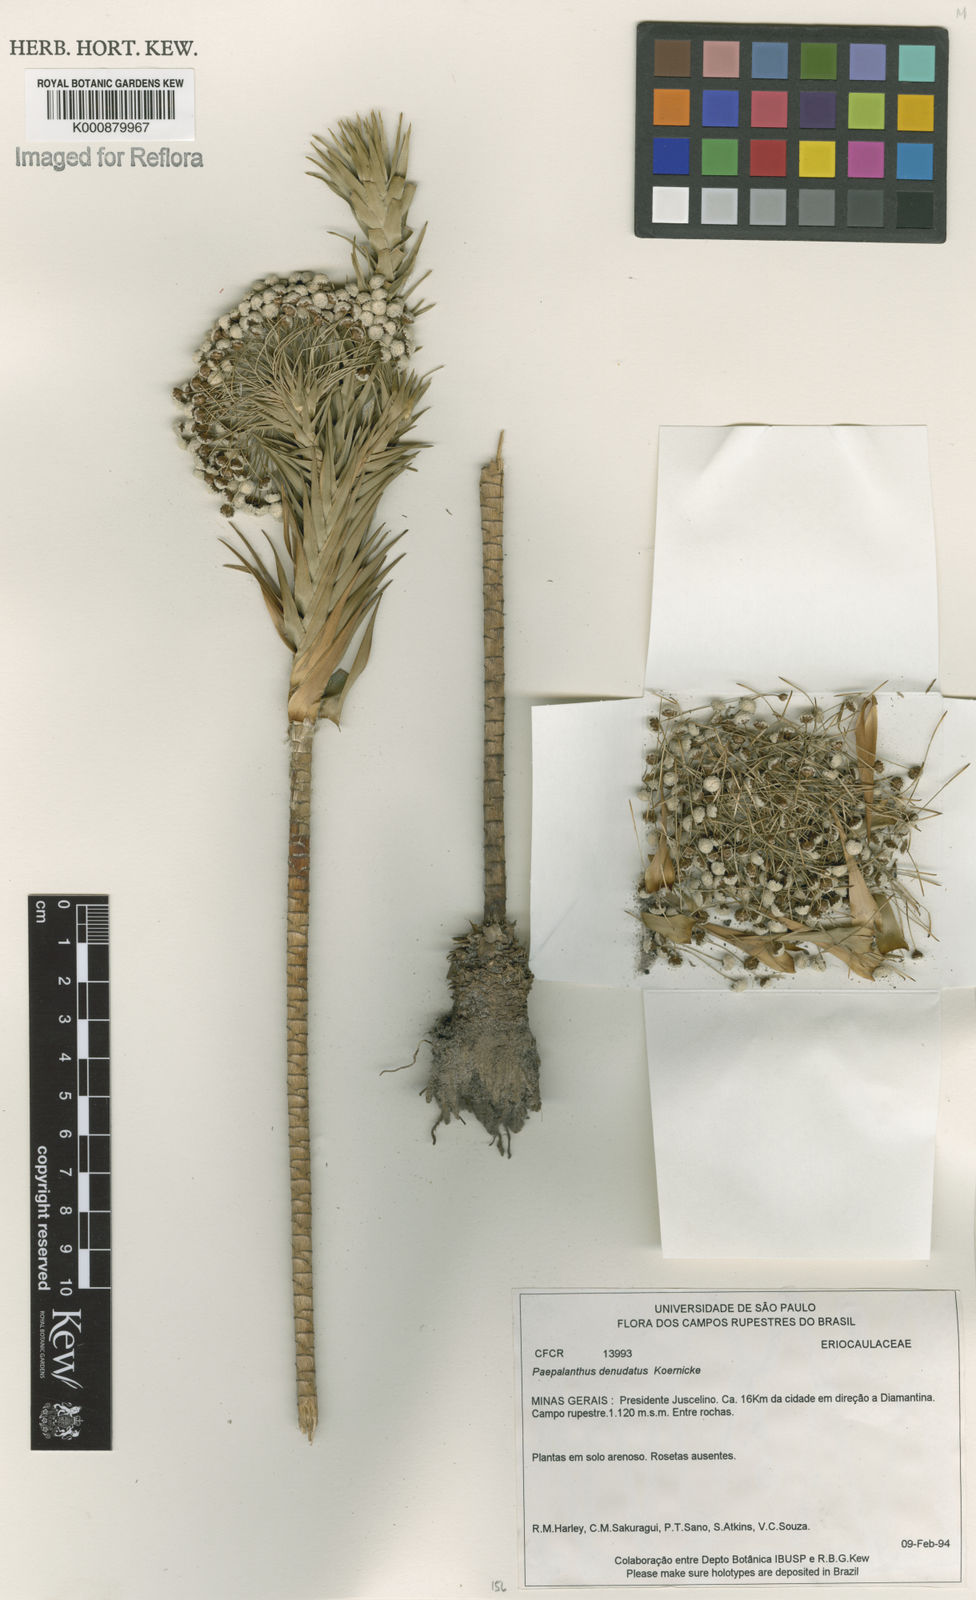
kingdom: Plantae
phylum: Tracheophyta
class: Liliopsida
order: Poales
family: Eriocaulaceae
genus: Paepalanthus
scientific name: Paepalanthus
